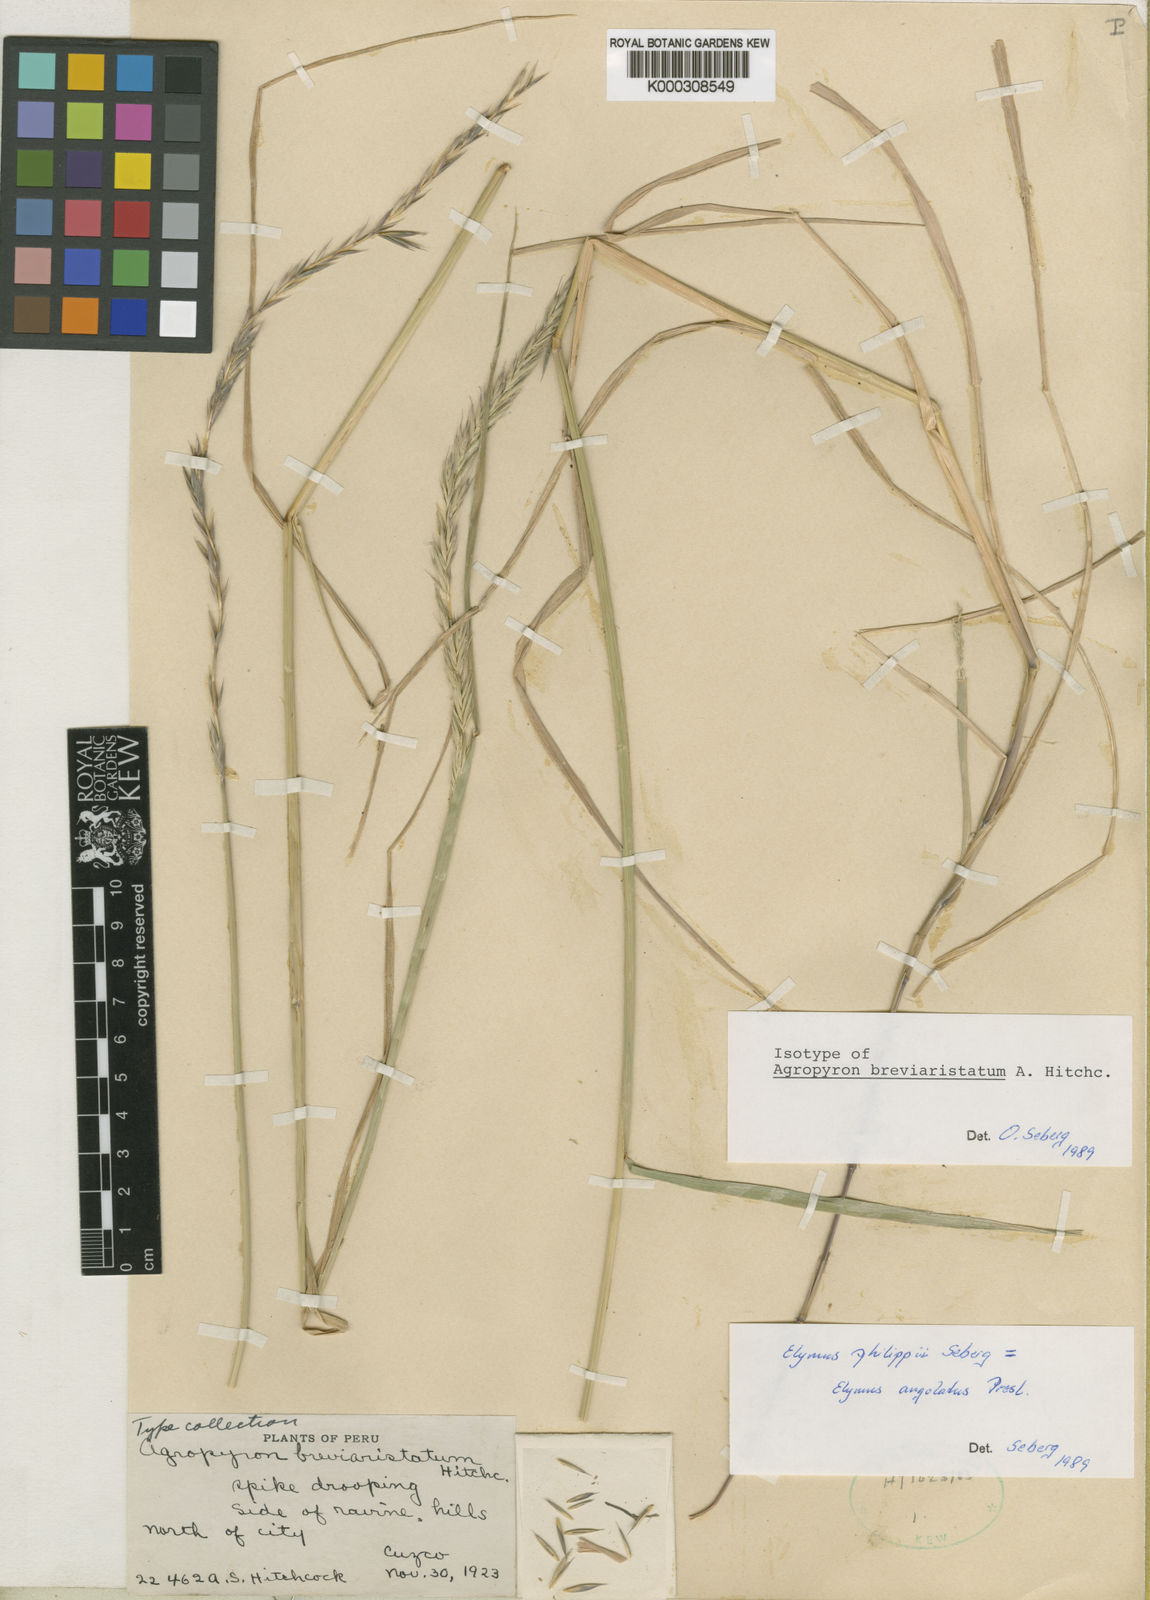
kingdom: Plantae
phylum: Tracheophyta
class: Liliopsida
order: Poales
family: Poaceae
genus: Elymus
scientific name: Elymus angulatus
